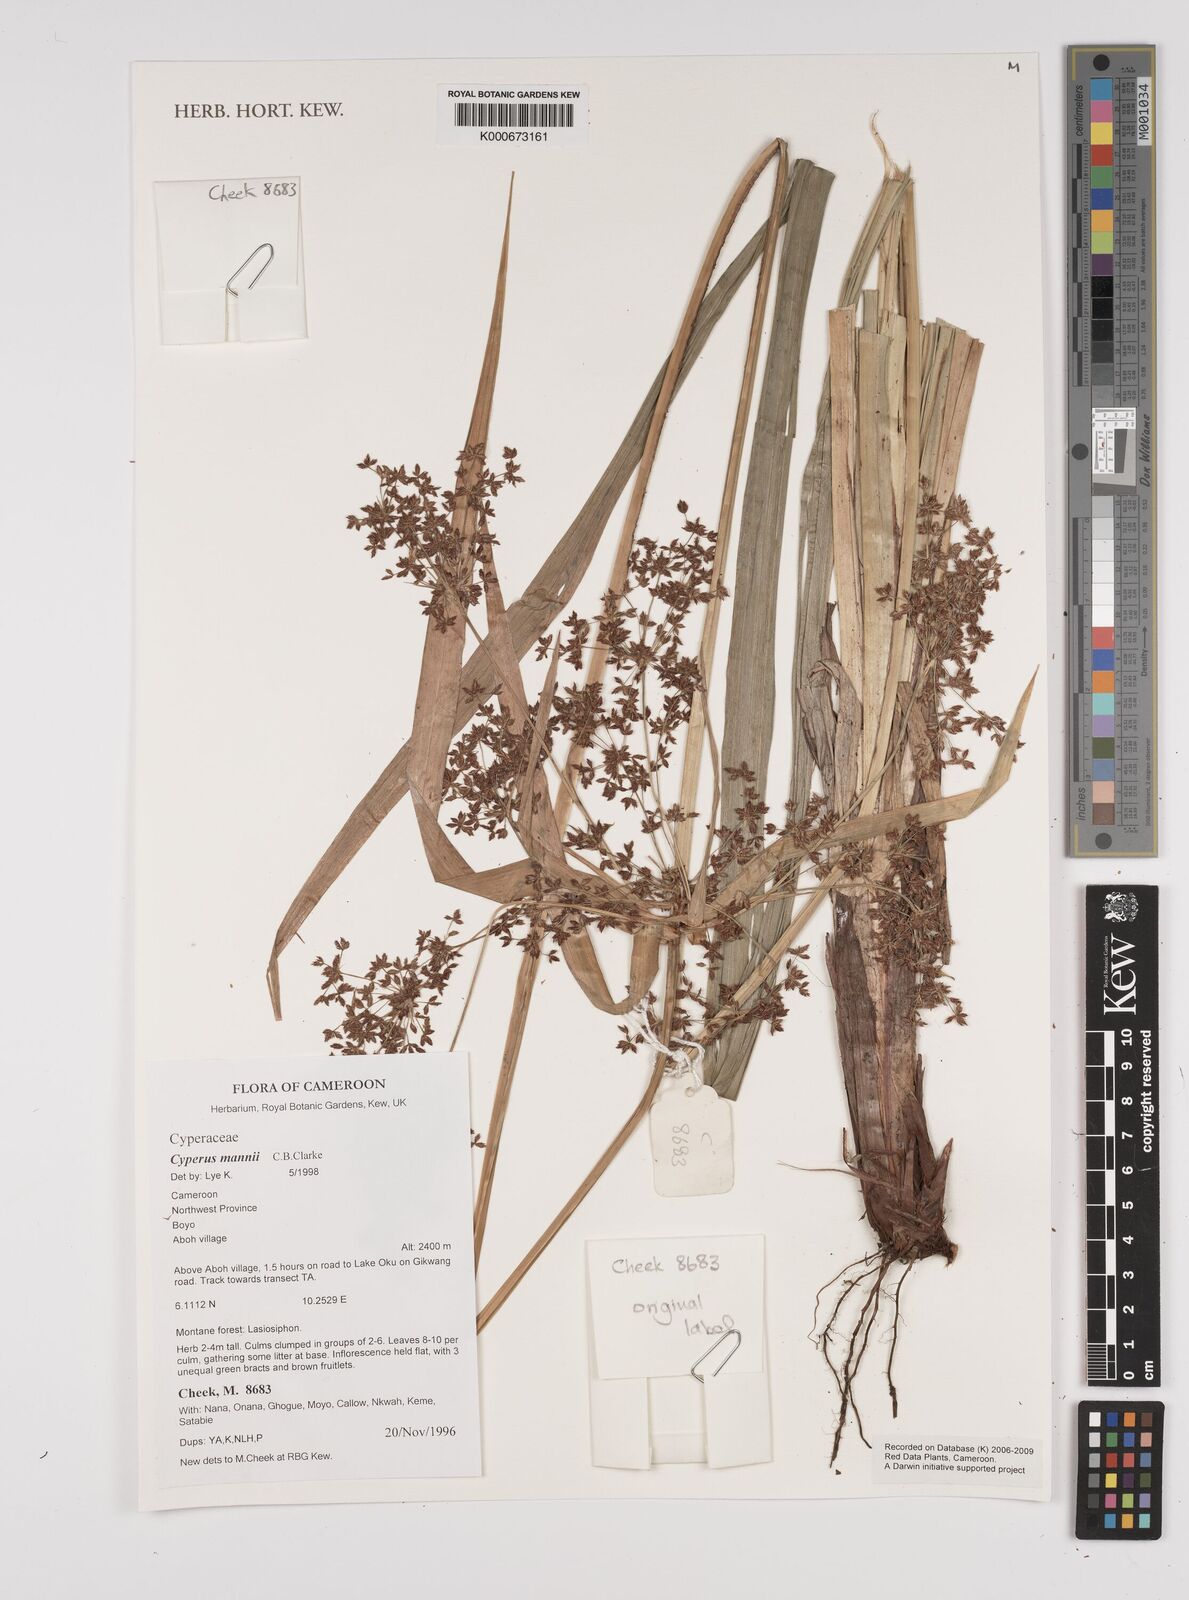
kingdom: Plantae
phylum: Tracheophyta
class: Liliopsida
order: Poales
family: Cyperaceae
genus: Cyperus
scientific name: Cyperus baronii
